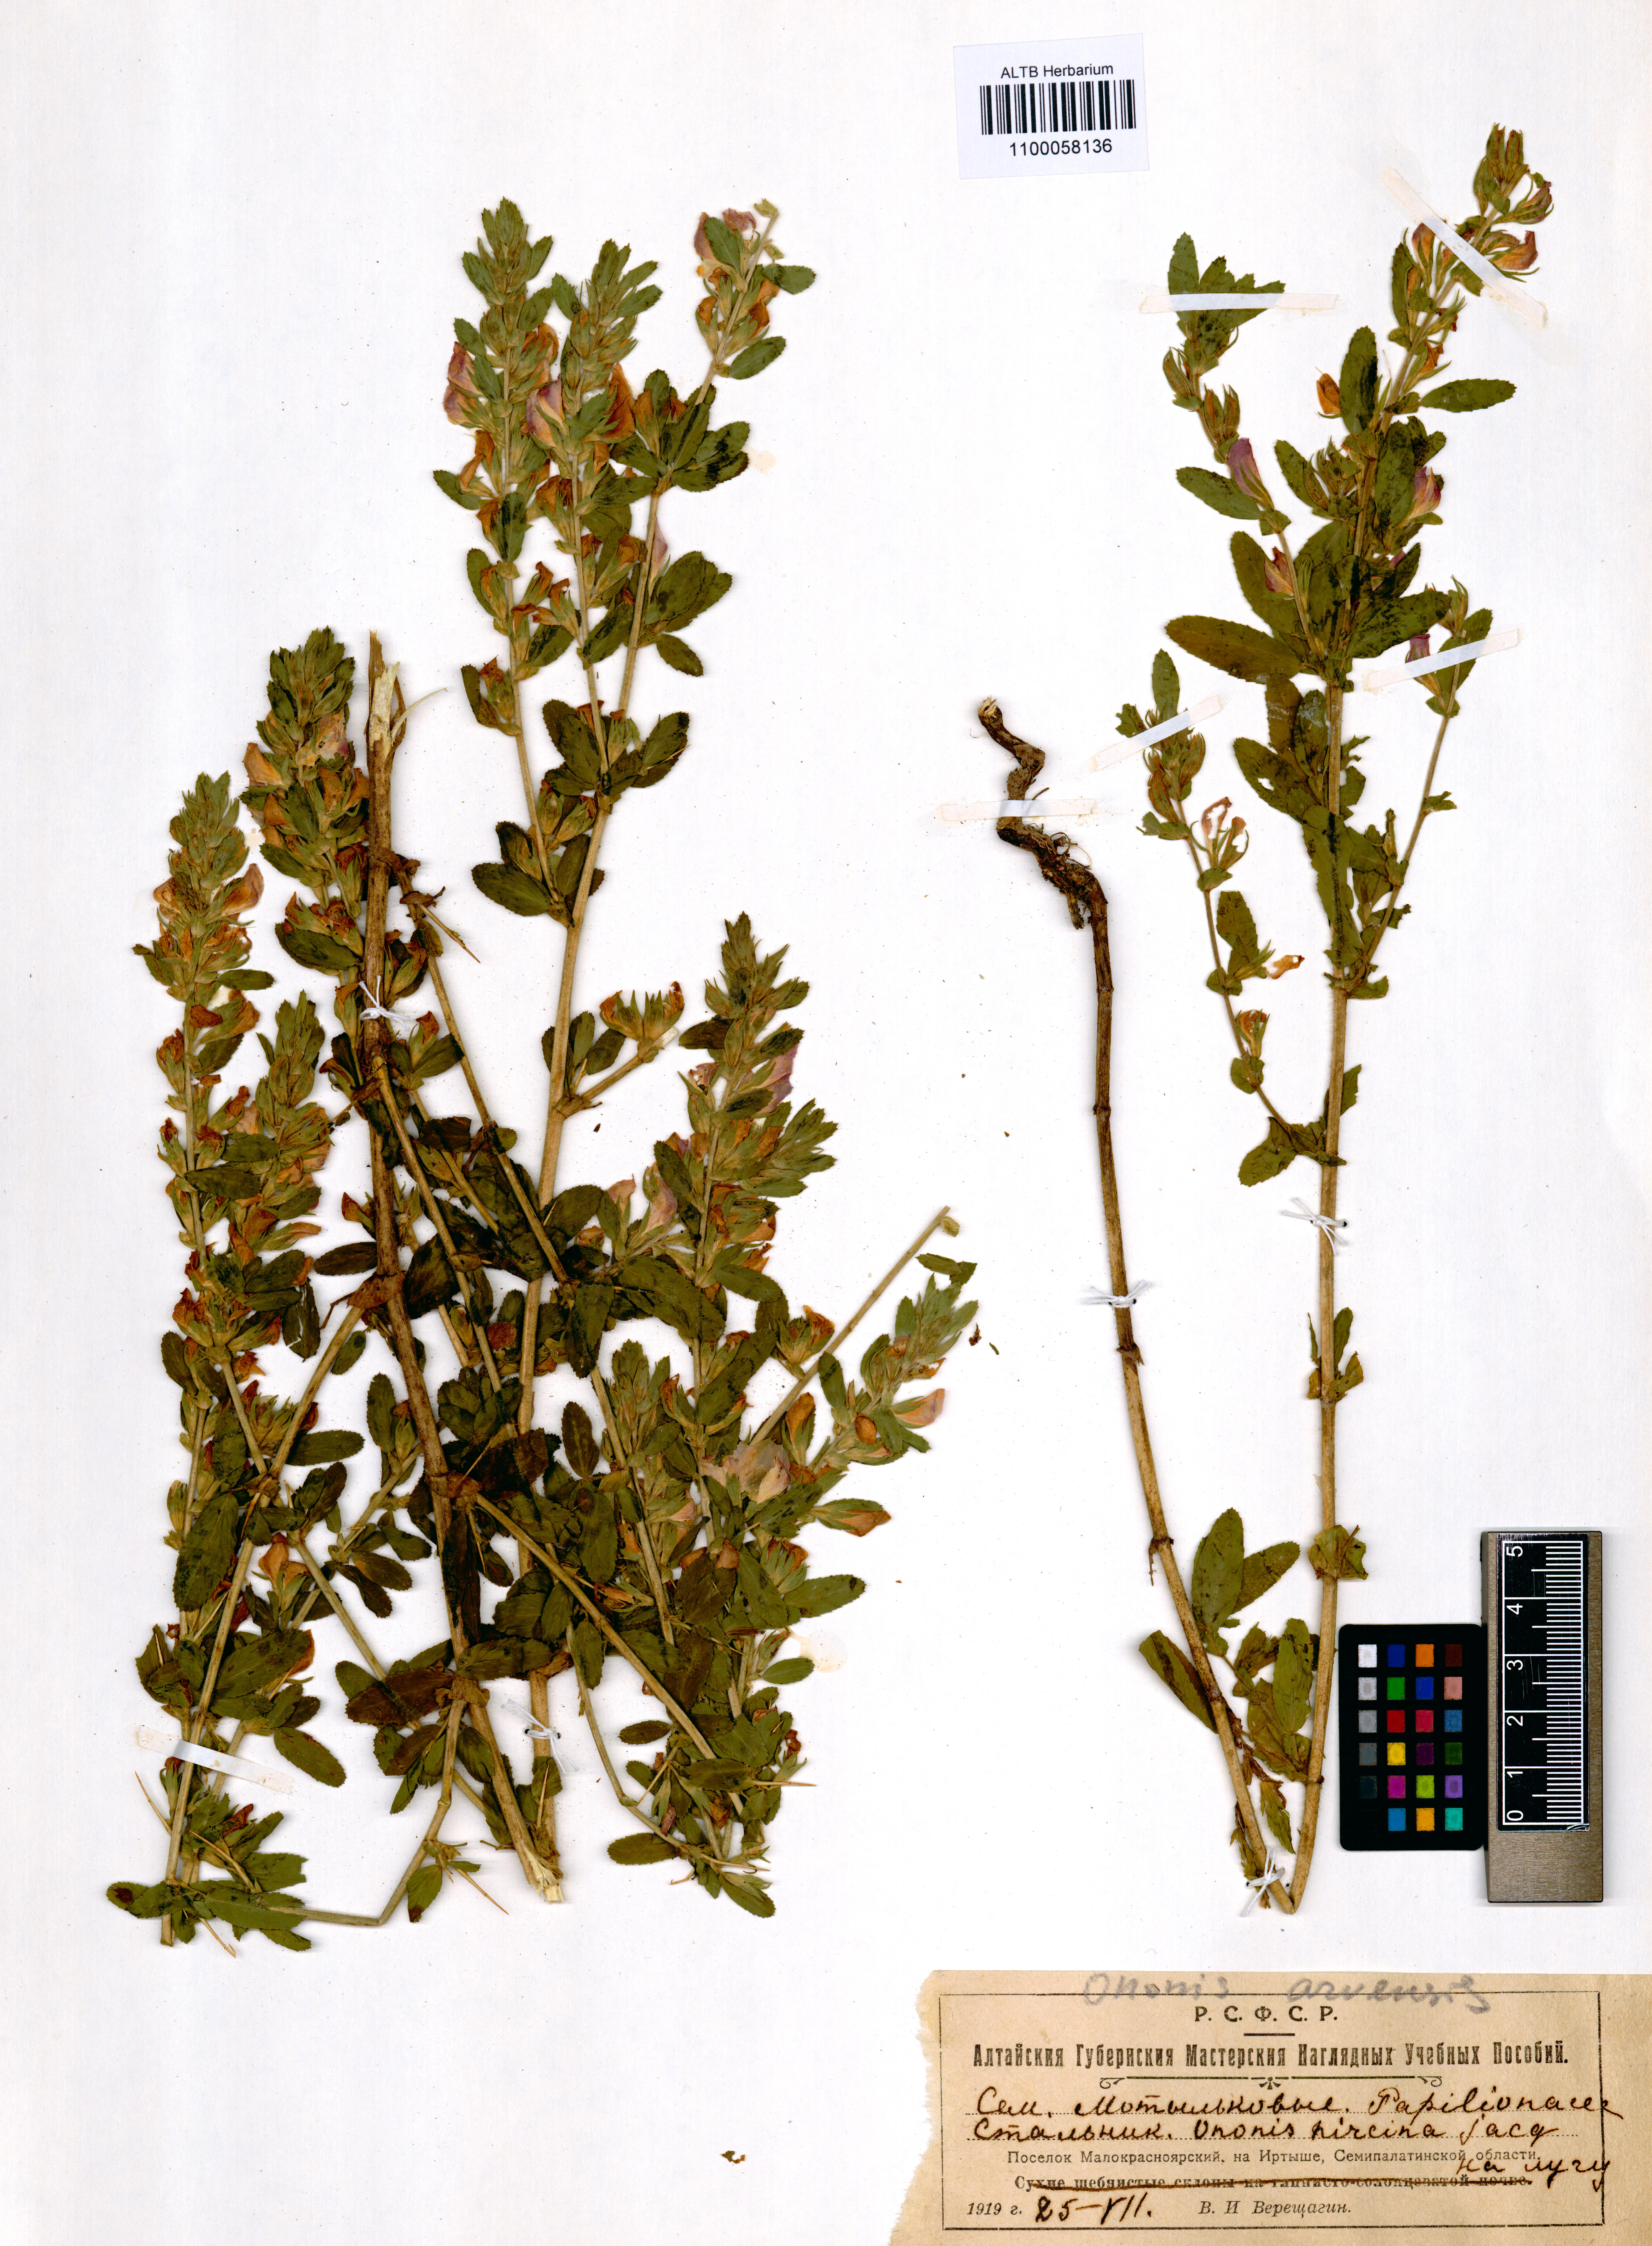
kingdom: Plantae
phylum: Tracheophyta
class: Magnoliopsida
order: Fabales
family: Fabaceae
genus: Ononis
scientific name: Ononis arvensis
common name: Field restharrow
